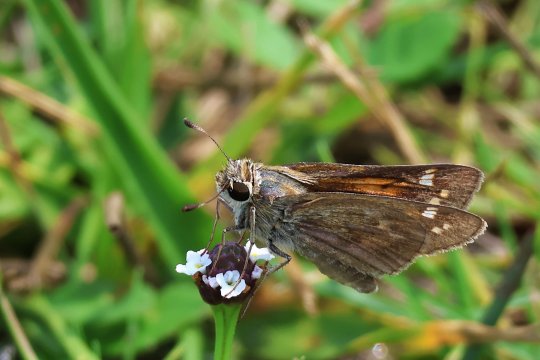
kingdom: Animalia
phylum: Arthropoda
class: Insecta
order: Lepidoptera
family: Hesperiidae
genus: Atalopedes
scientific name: Atalopedes campestris
